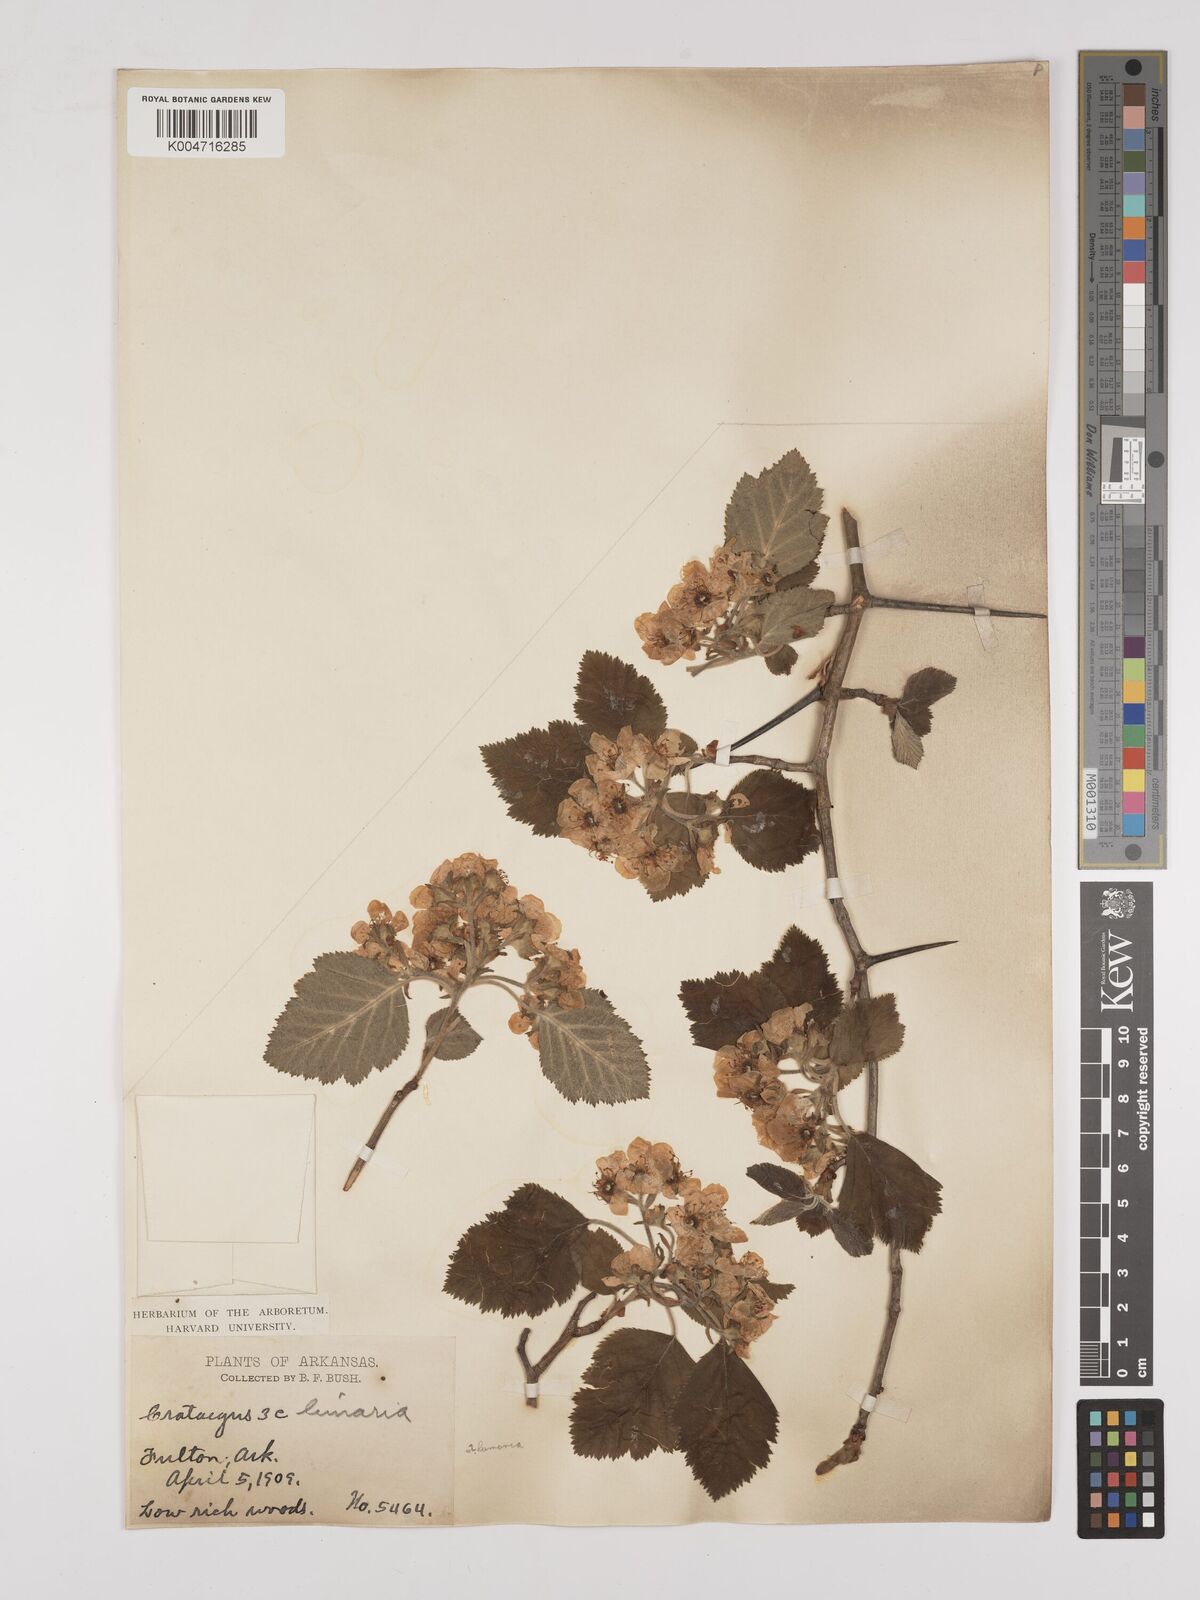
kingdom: Plantae
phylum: Tracheophyta
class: Magnoliopsida
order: Rosales
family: Rosaceae
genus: Crataegus
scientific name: Crataegus mollis
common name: Downy hawthorn
